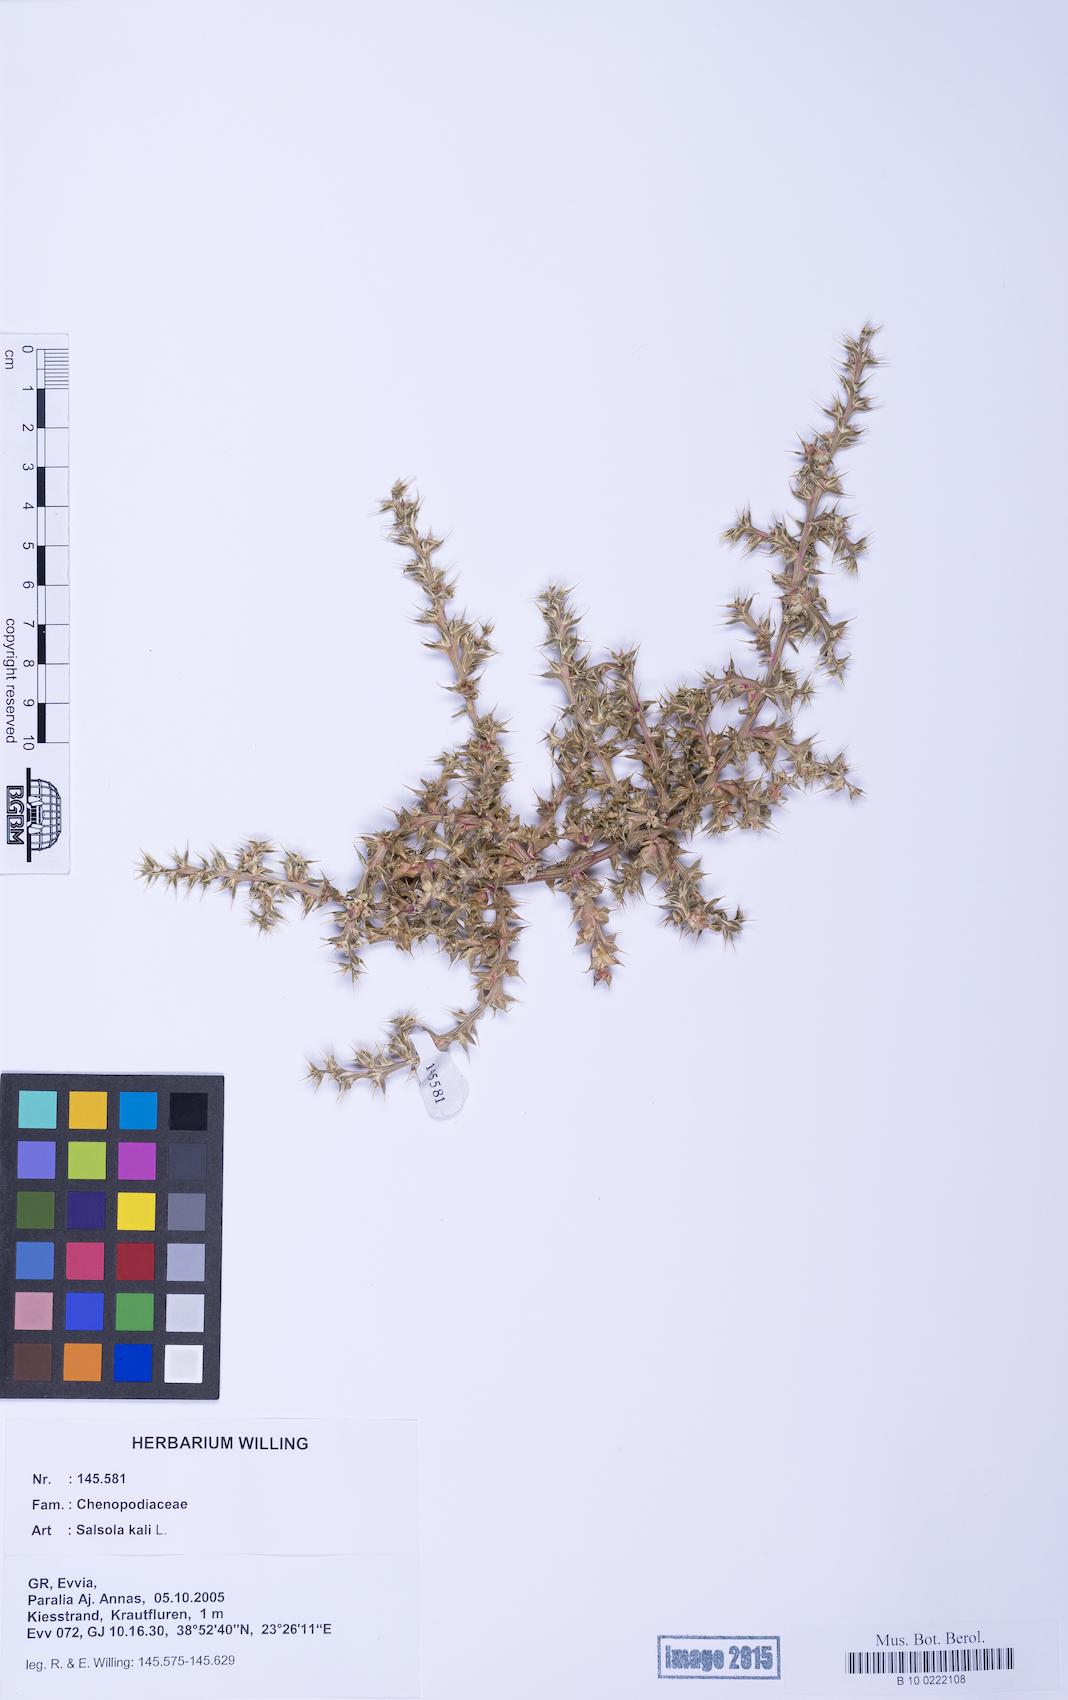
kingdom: Plantae
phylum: Tracheophyta
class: Magnoliopsida
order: Caryophyllales
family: Amaranthaceae
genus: Salsola
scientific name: Salsola kali
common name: Saltwort
